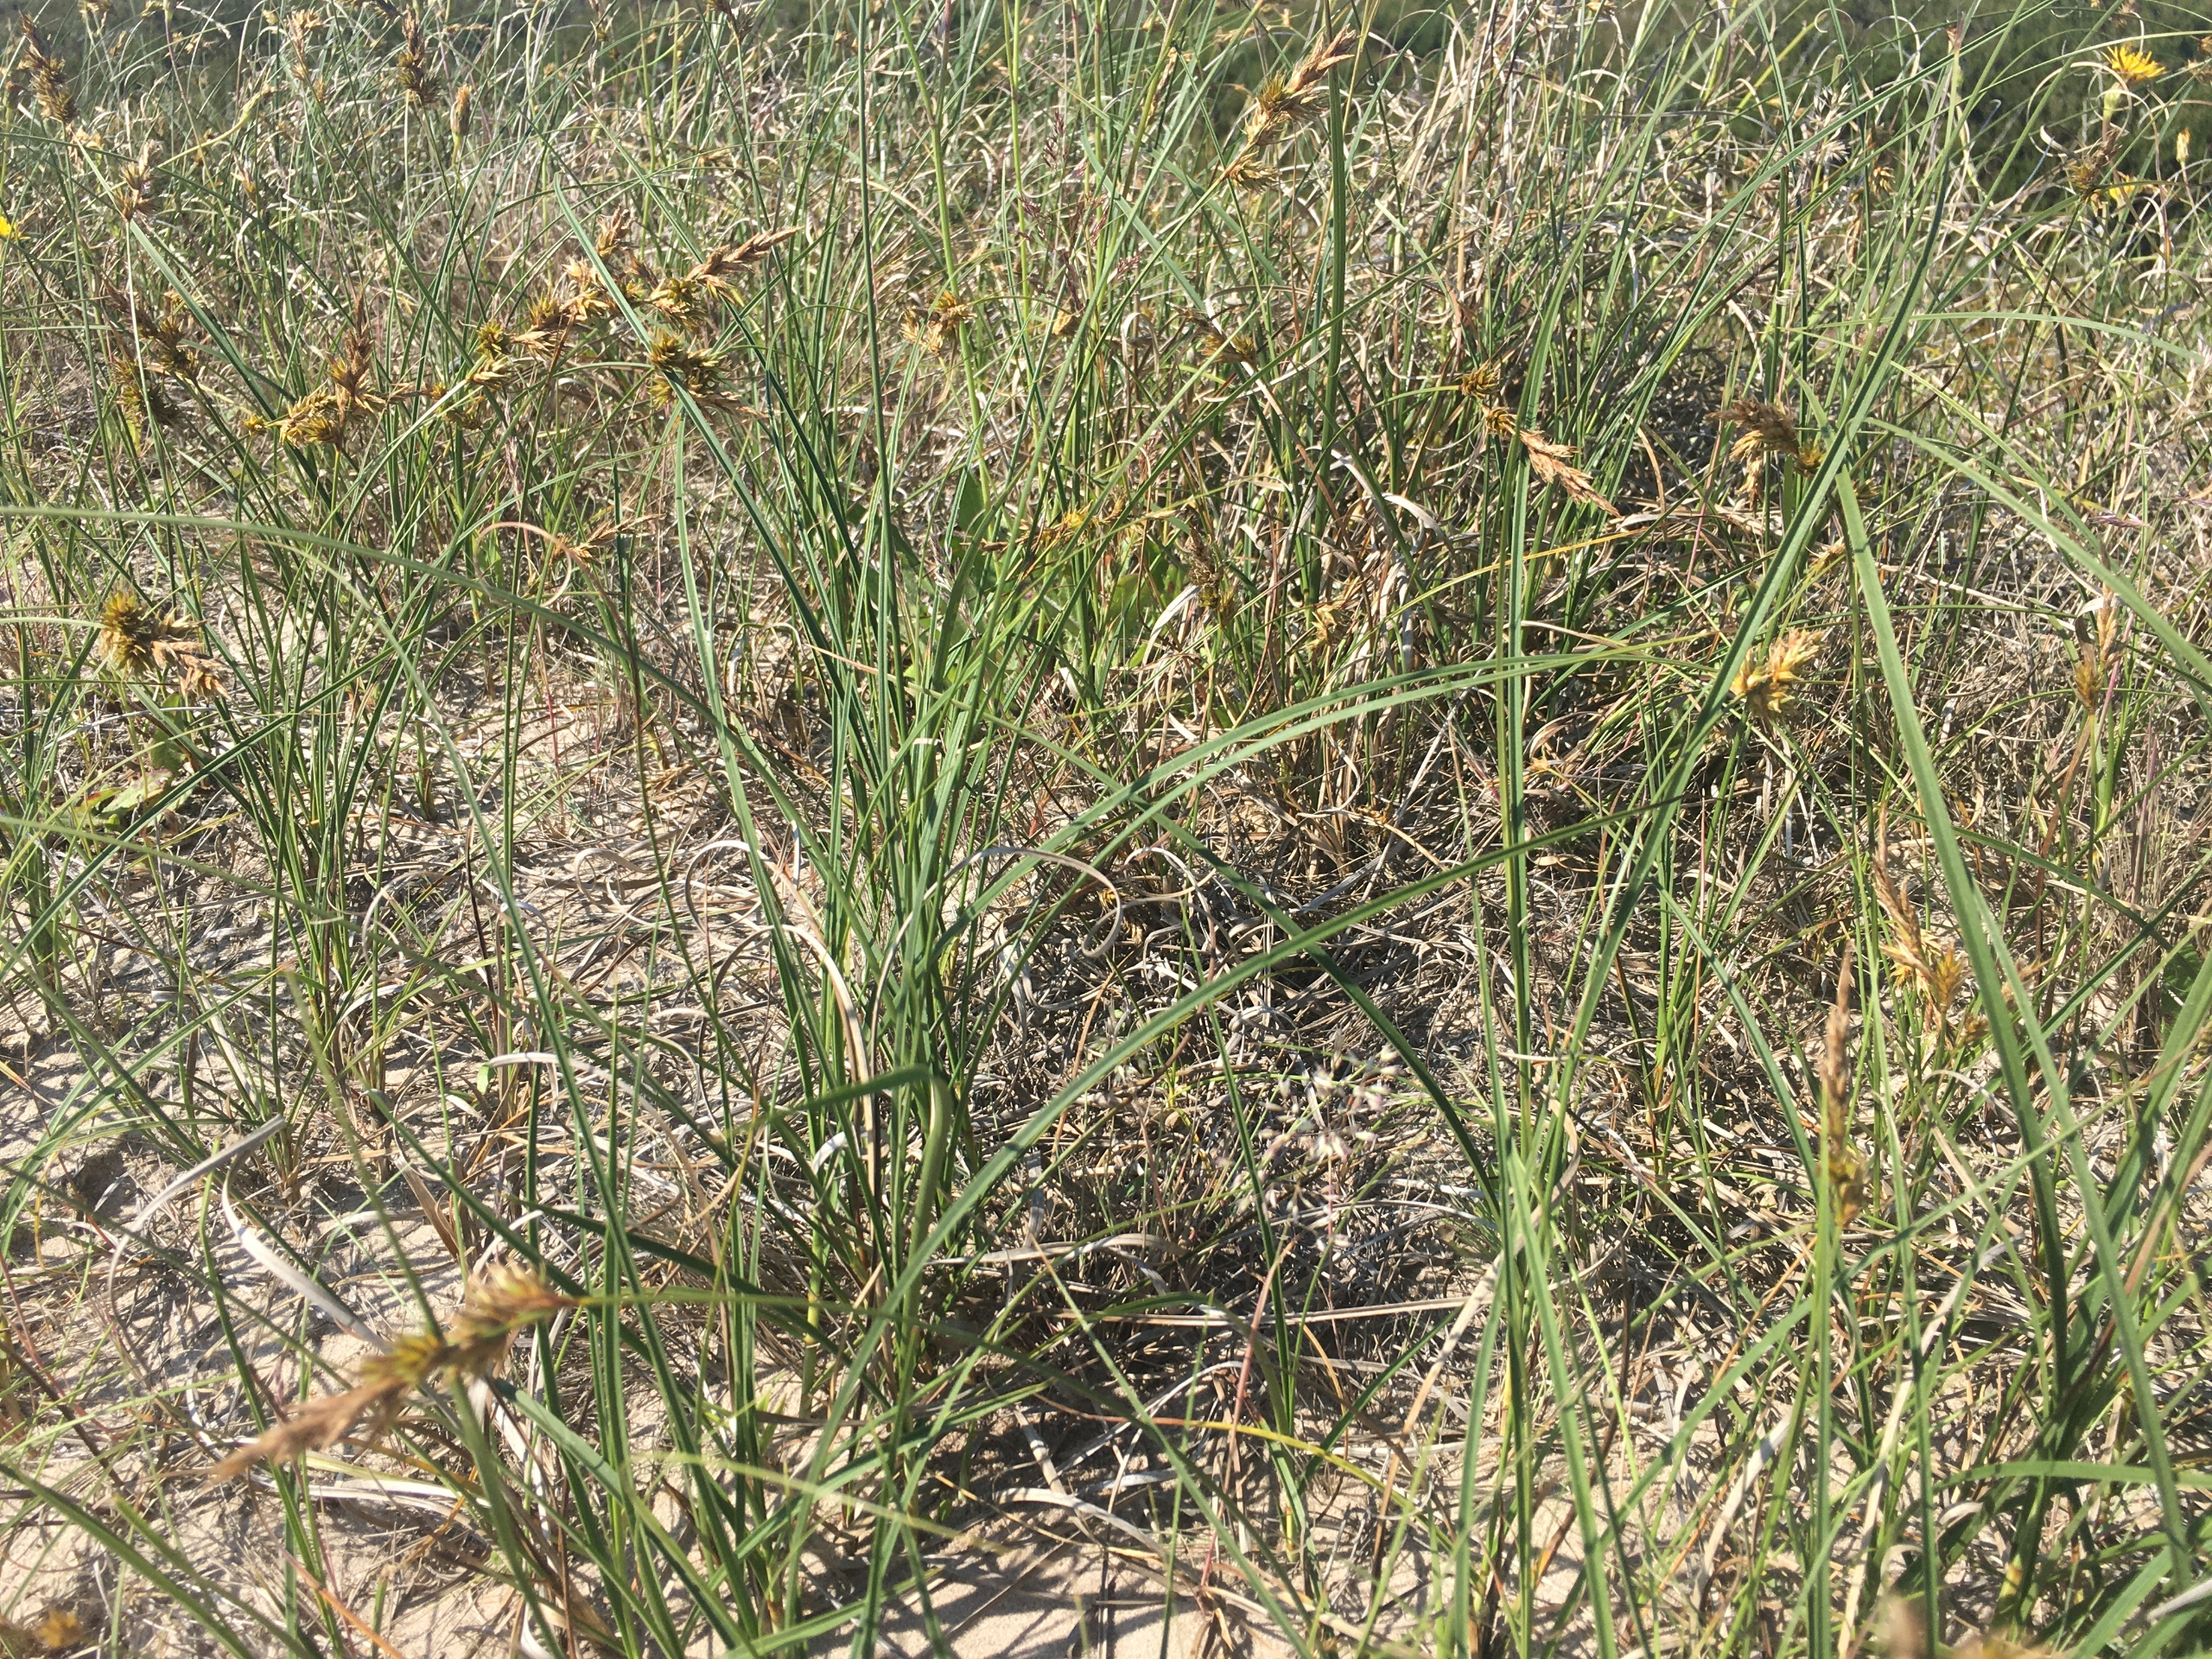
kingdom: Plantae
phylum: Tracheophyta
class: Liliopsida
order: Poales
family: Cyperaceae
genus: Carex
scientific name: Carex arenaria
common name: Sand-star
